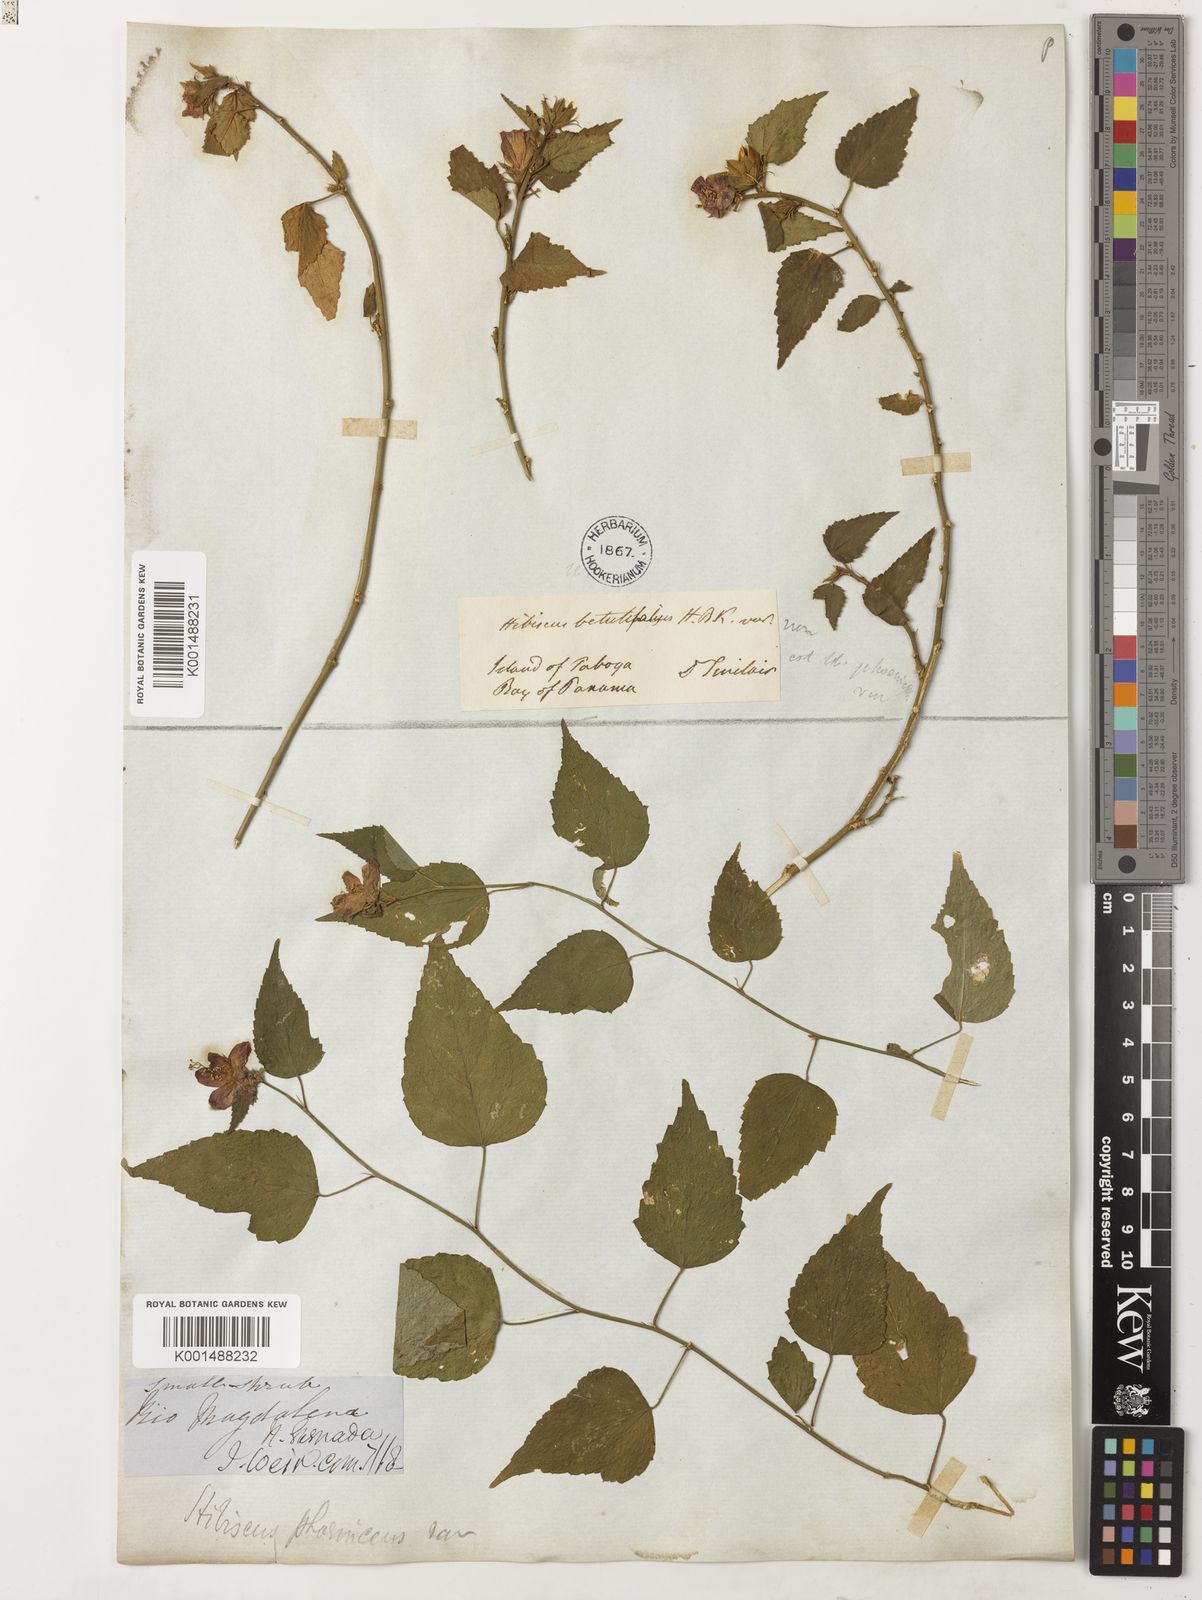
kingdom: Plantae
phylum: Tracheophyta
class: Magnoliopsida
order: Malvales
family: Malvaceae
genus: Hibiscus
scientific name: Hibiscus phoeniceus
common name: Brazilian rosemallow
